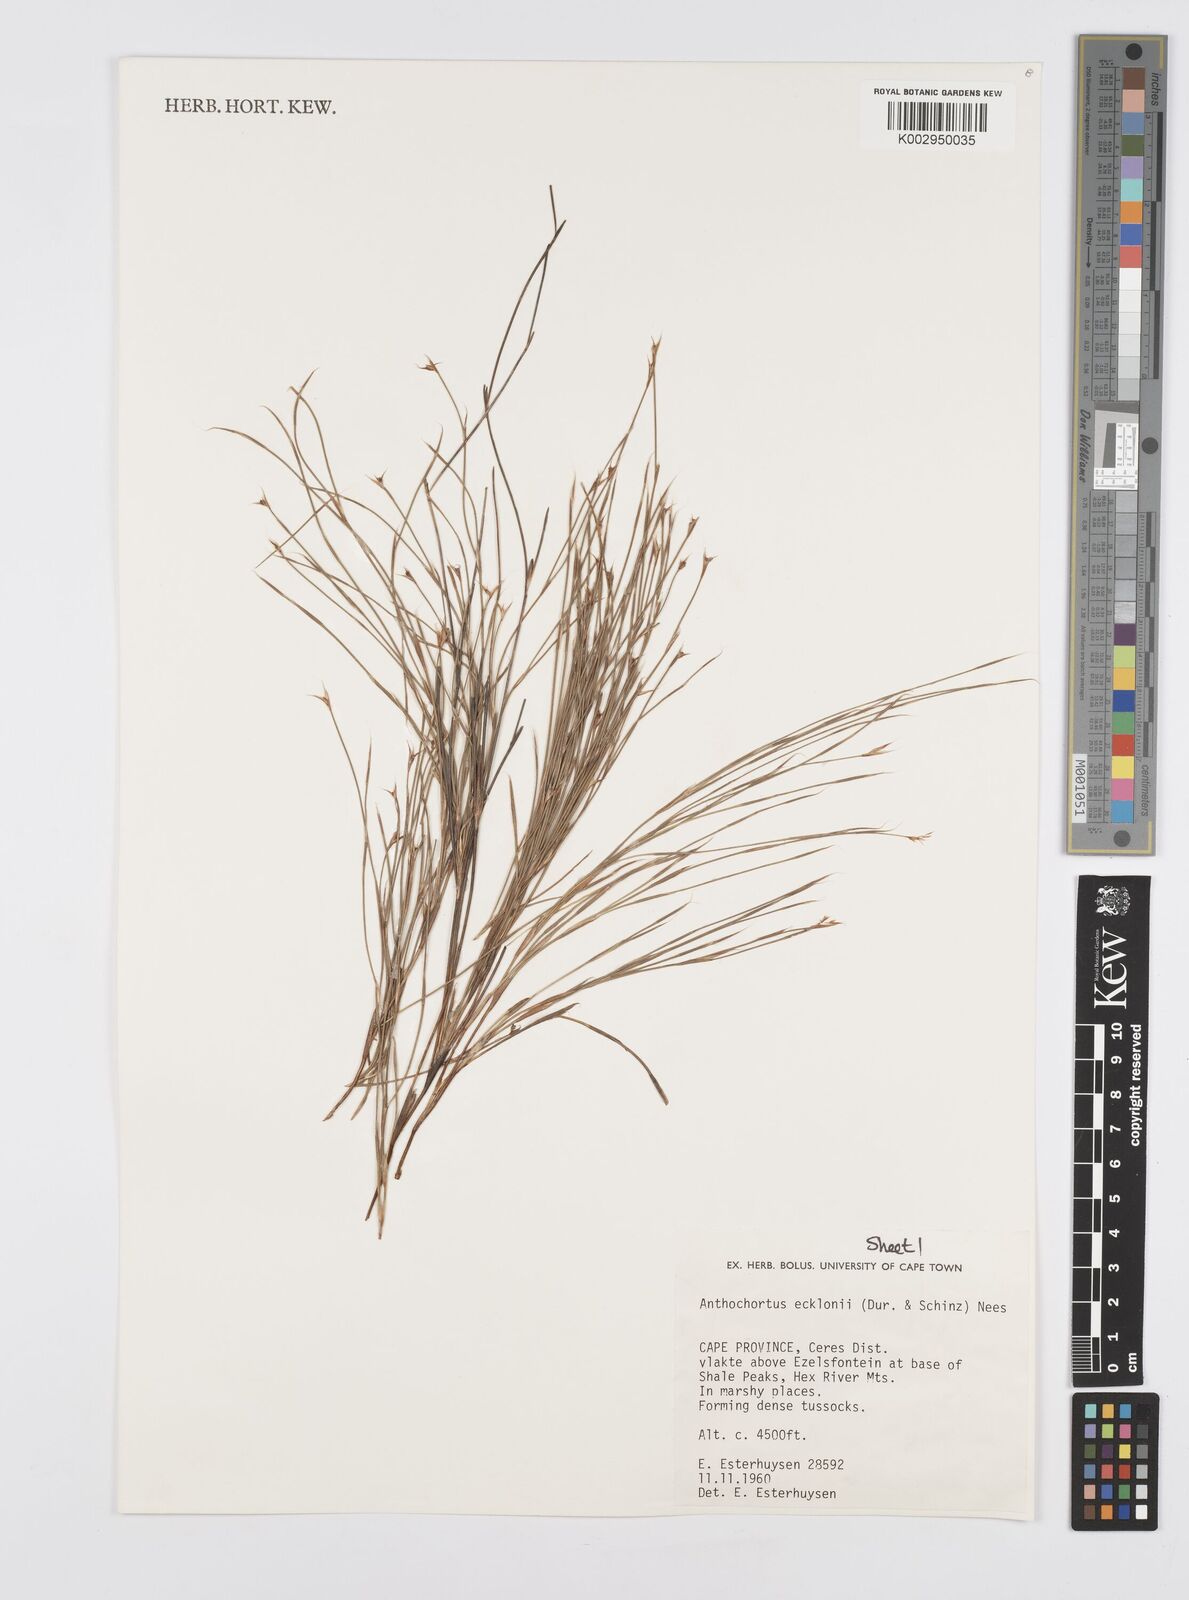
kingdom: Plantae
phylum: Tracheophyta
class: Liliopsida
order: Poales
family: Restionaceae
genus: Anthochortus
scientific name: Anthochortus ecklonii
